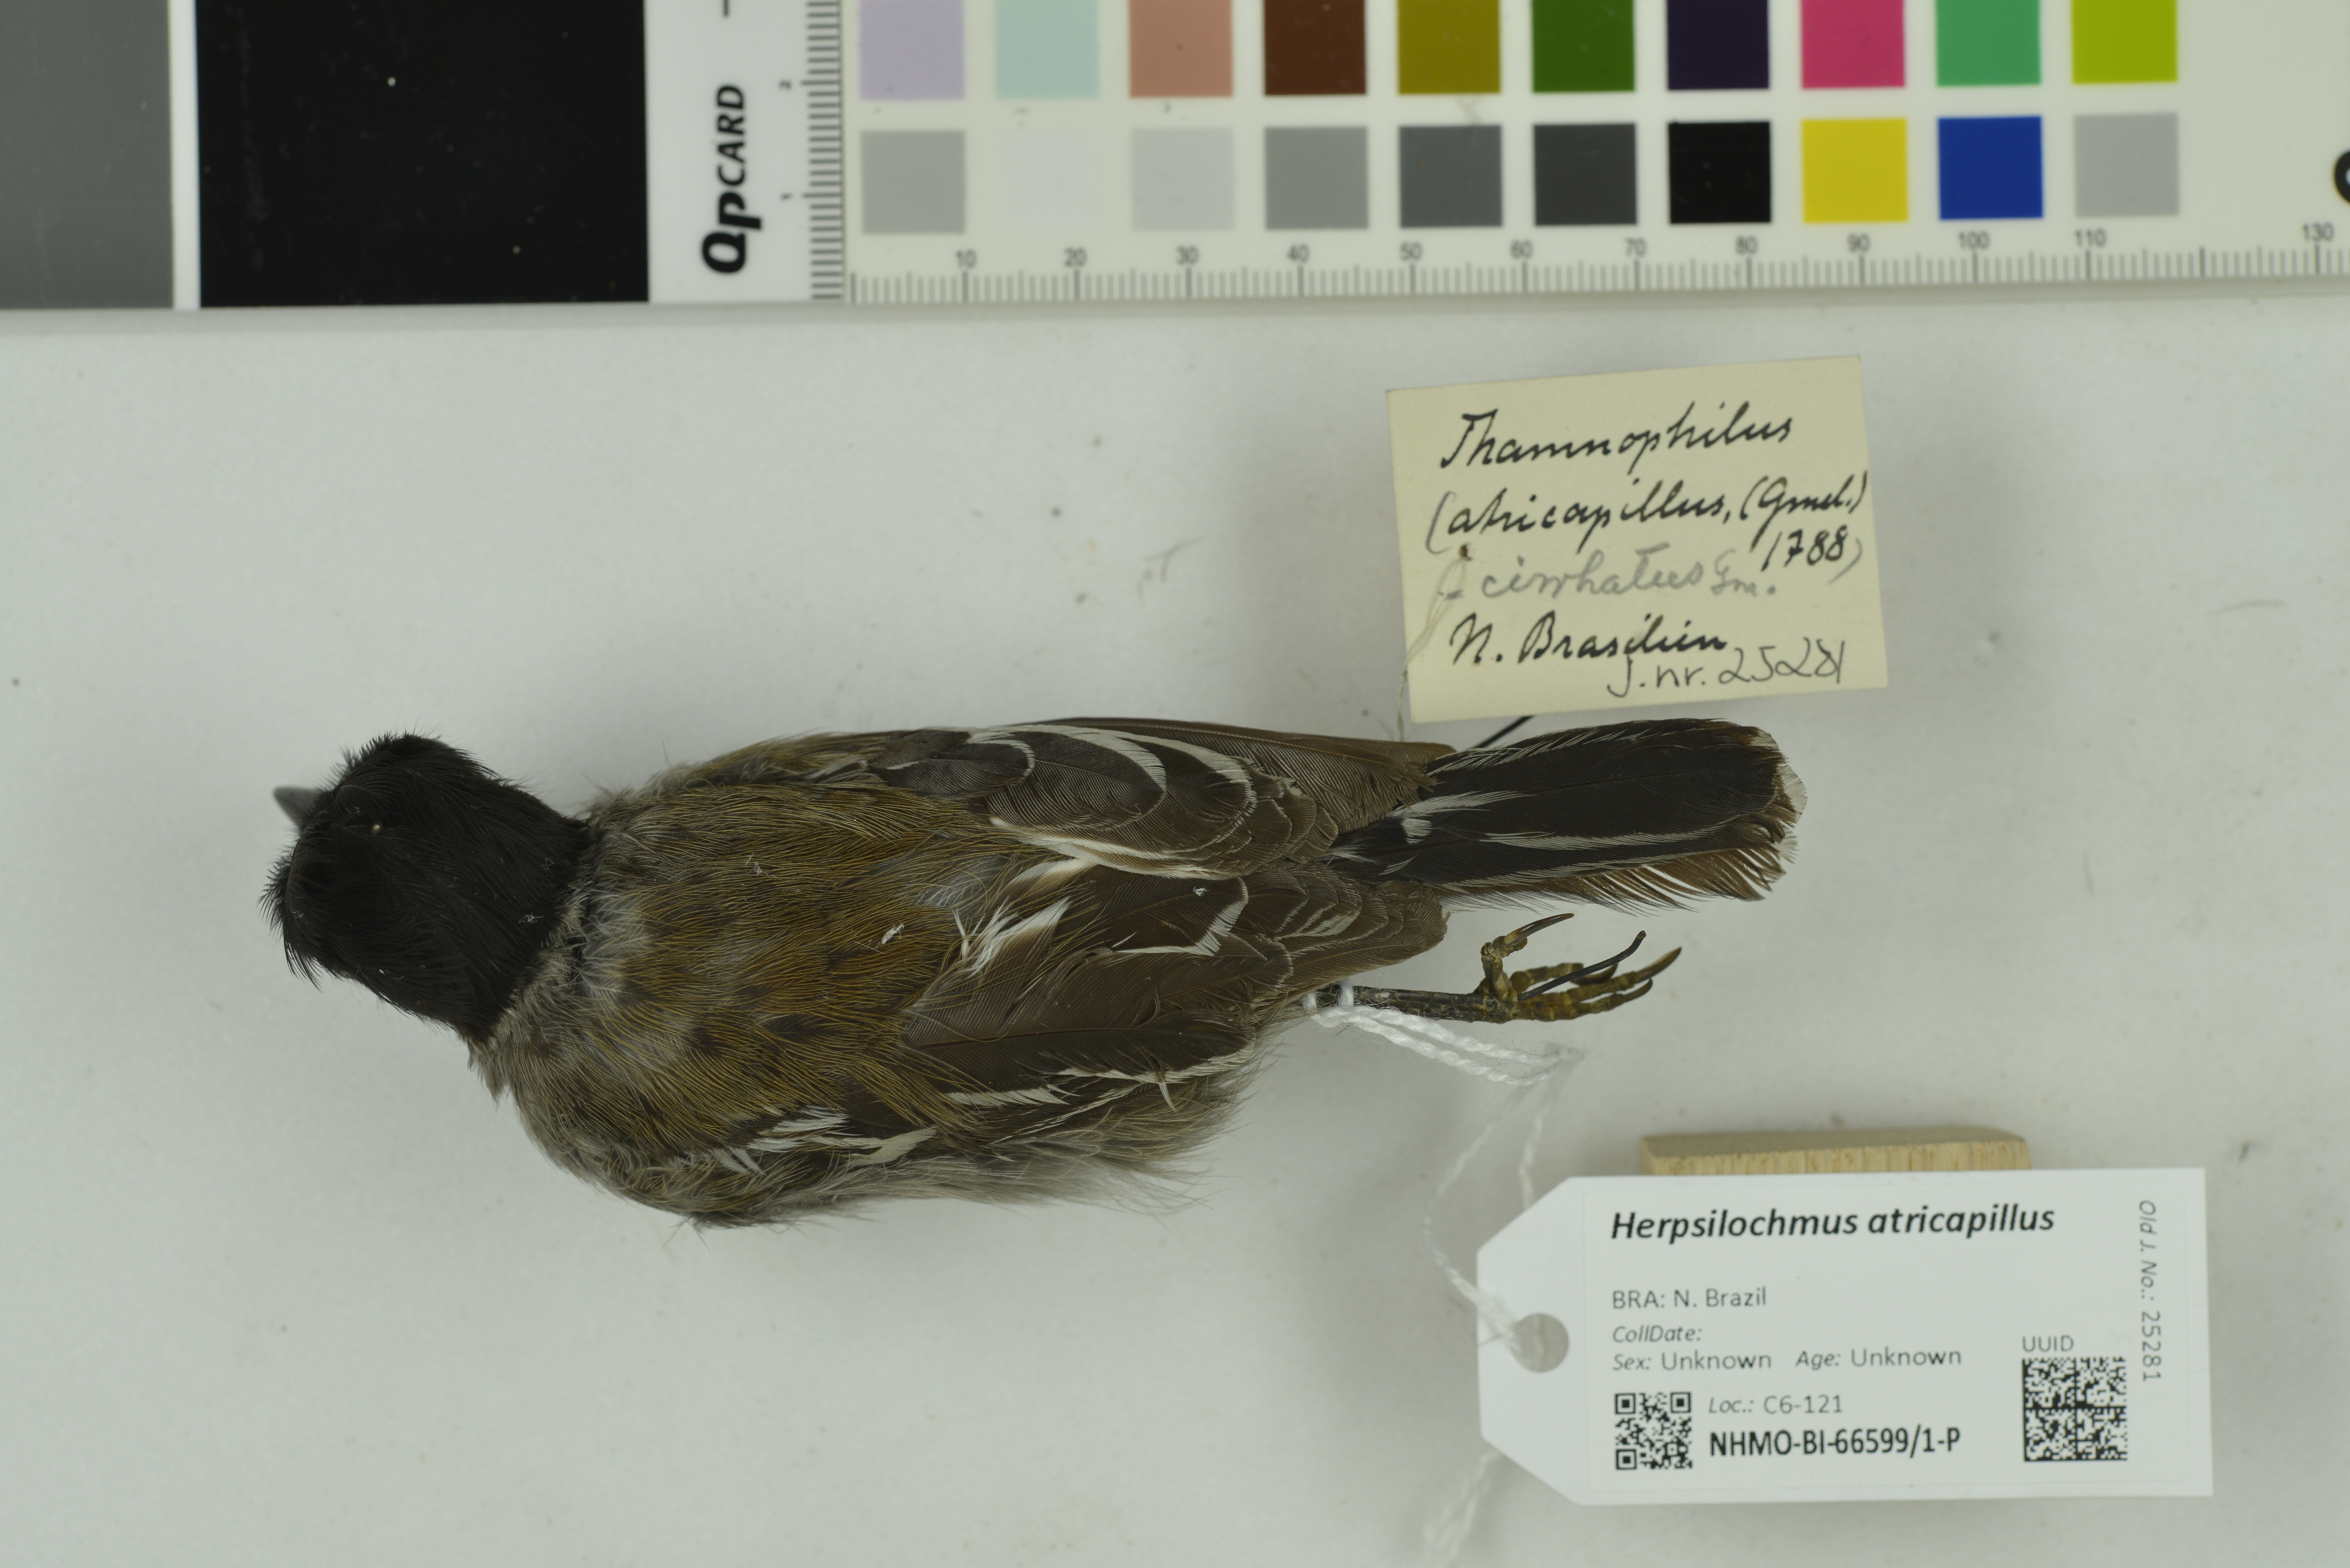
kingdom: Animalia
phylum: Chordata
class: Aves
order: Passeriformes
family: Thamnophilidae
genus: Herpsilochmus
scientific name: Herpsilochmus atricapillus
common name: Black-capped antwren
